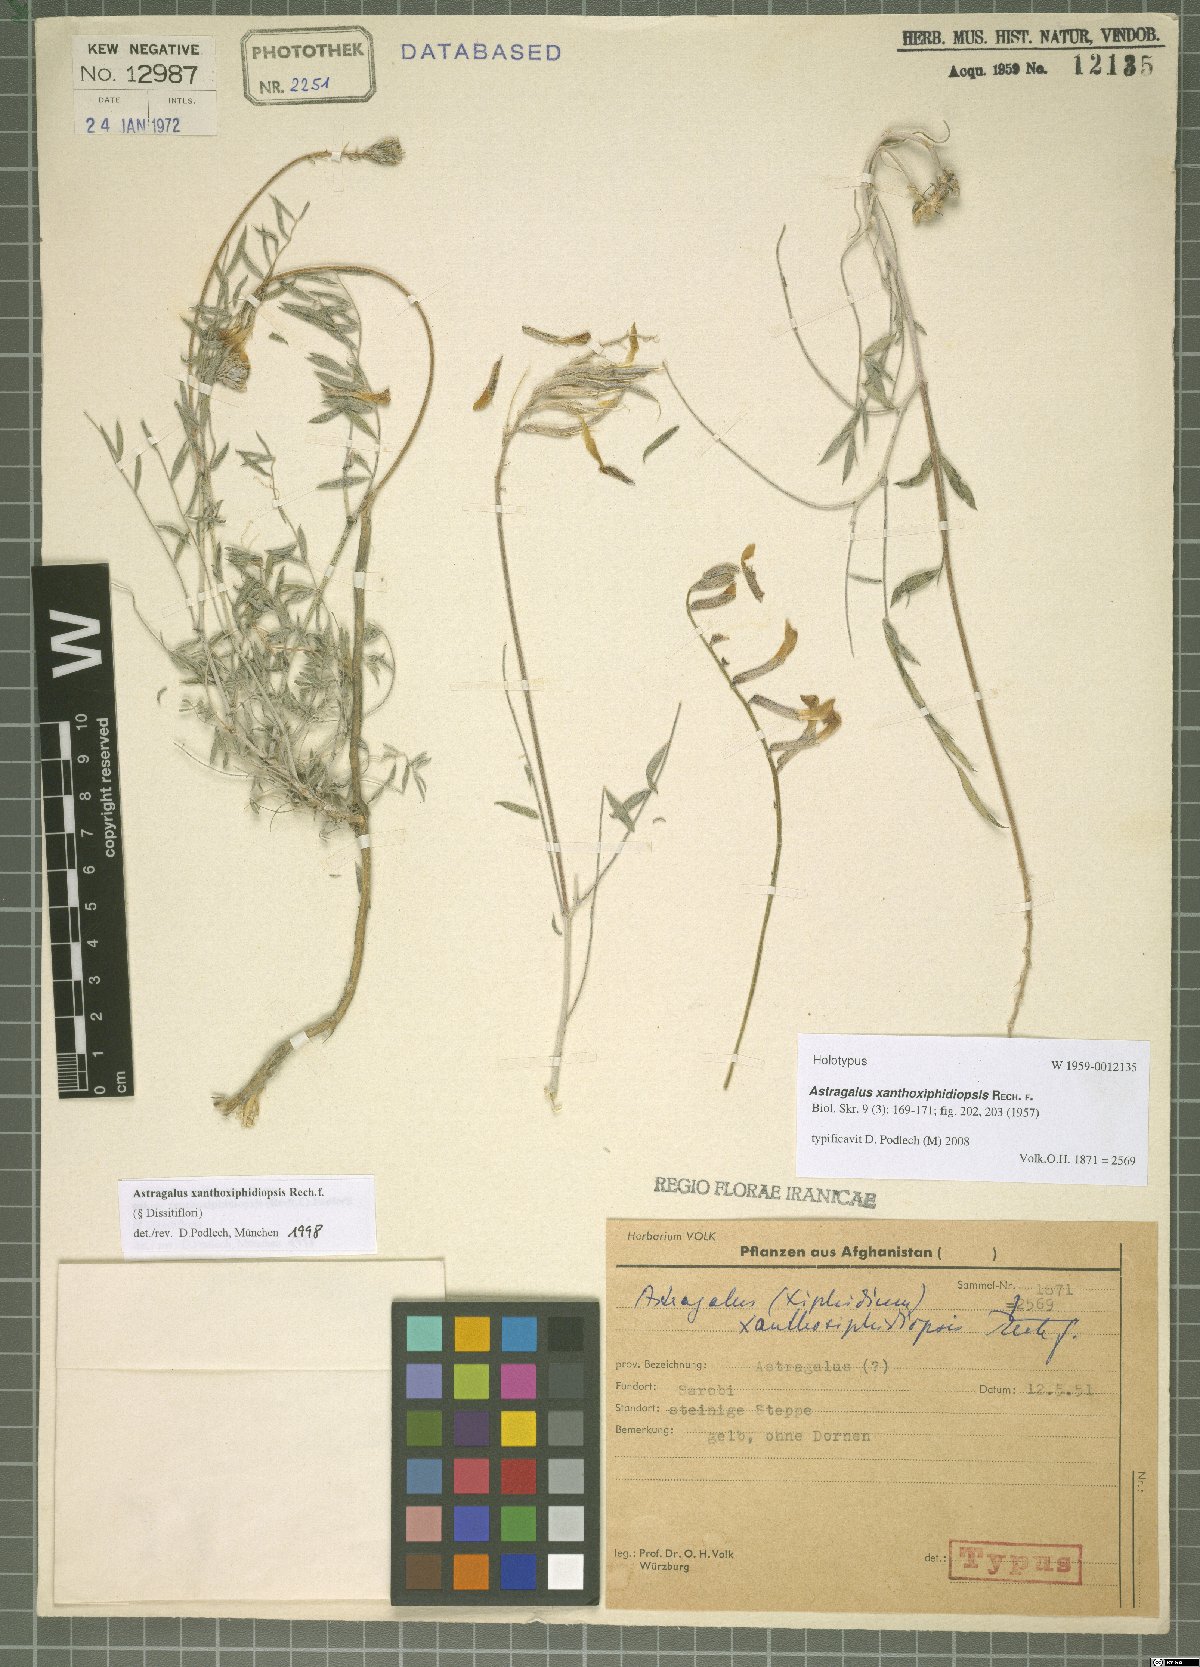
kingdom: Plantae
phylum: Tracheophyta
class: Magnoliopsida
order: Fabales
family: Fabaceae
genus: Astragalus
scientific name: Astragalus xanthoxiphidiopsis
